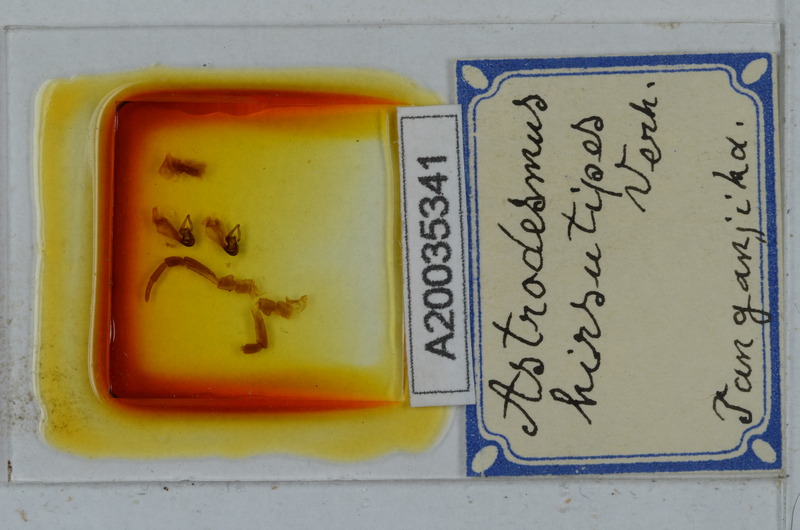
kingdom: Animalia
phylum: Arthropoda
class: Diplopoda
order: Polydesmida
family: Gomphodesmidae
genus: Astrodesmus
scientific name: Astrodesmus hirsutipes
